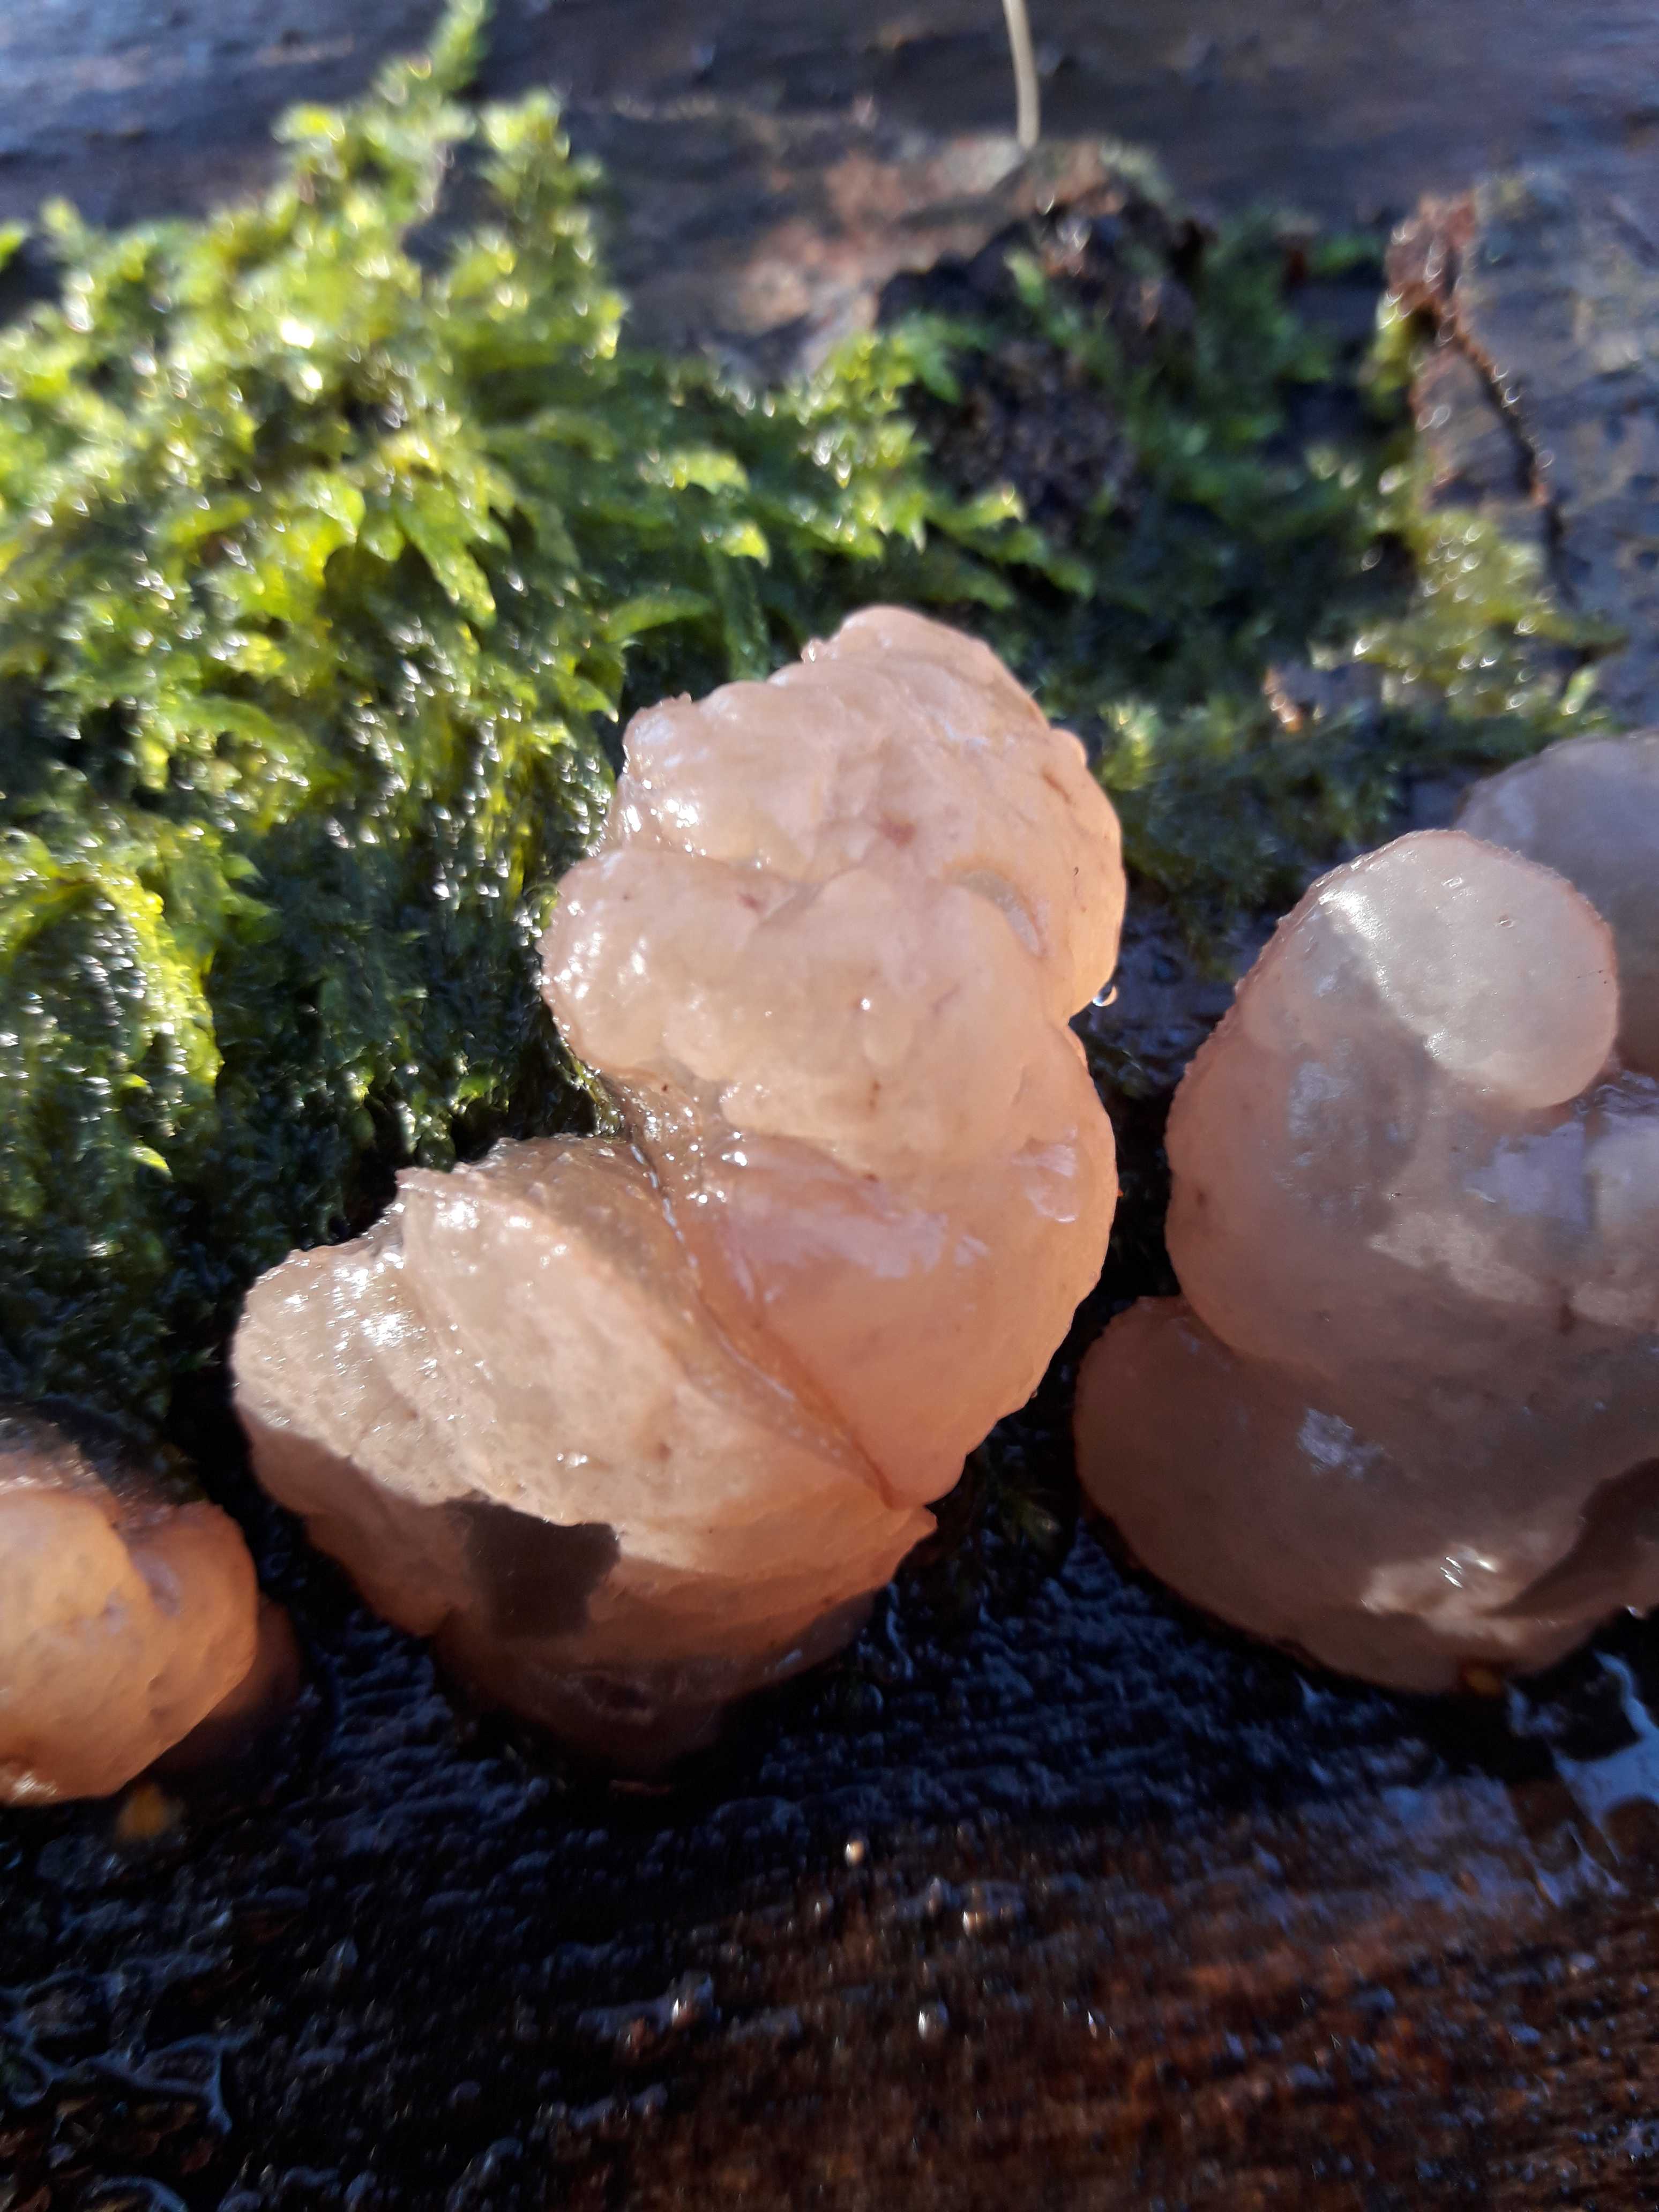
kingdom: Fungi
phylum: Ascomycota
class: Leotiomycetes
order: Helotiales
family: Gelatinodiscaceae
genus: Neobulgaria
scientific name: Neobulgaria pura
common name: bleg bævreskive
